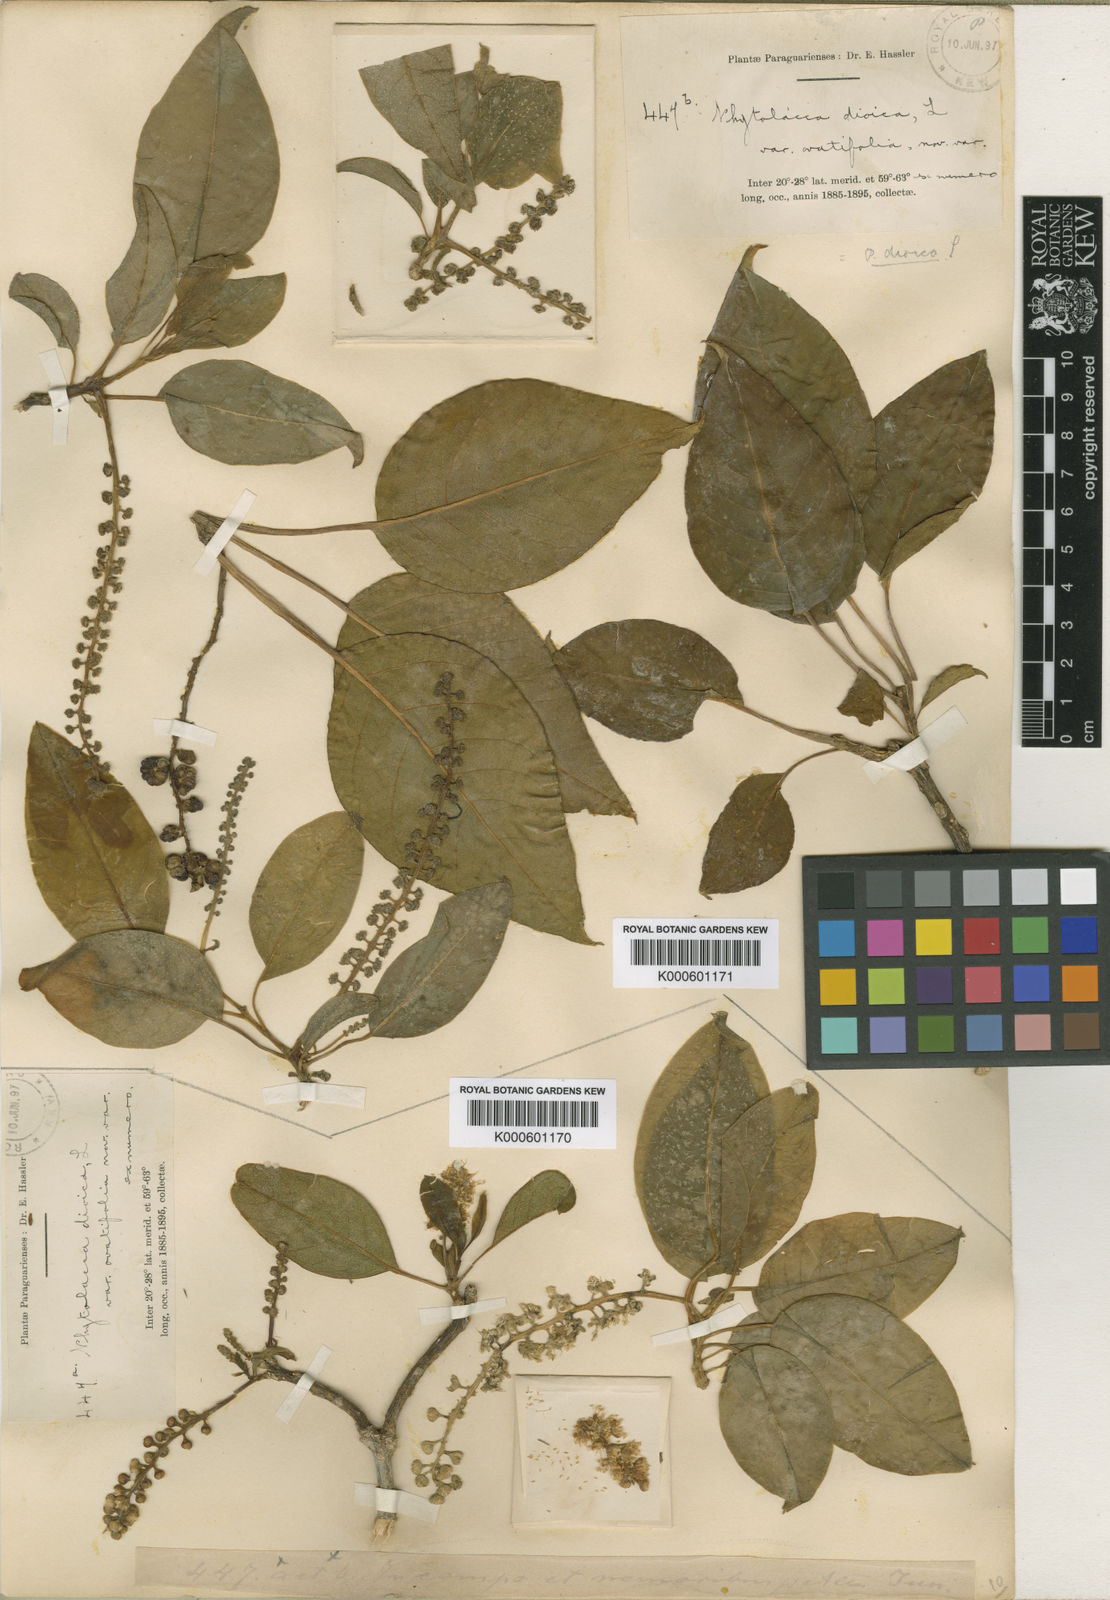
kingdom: Plantae
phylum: Tracheophyta
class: Magnoliopsida
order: Caryophyllales
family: Phytolaccaceae
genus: Phytolacca
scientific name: Phytolacca dioica
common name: Pokeweed
